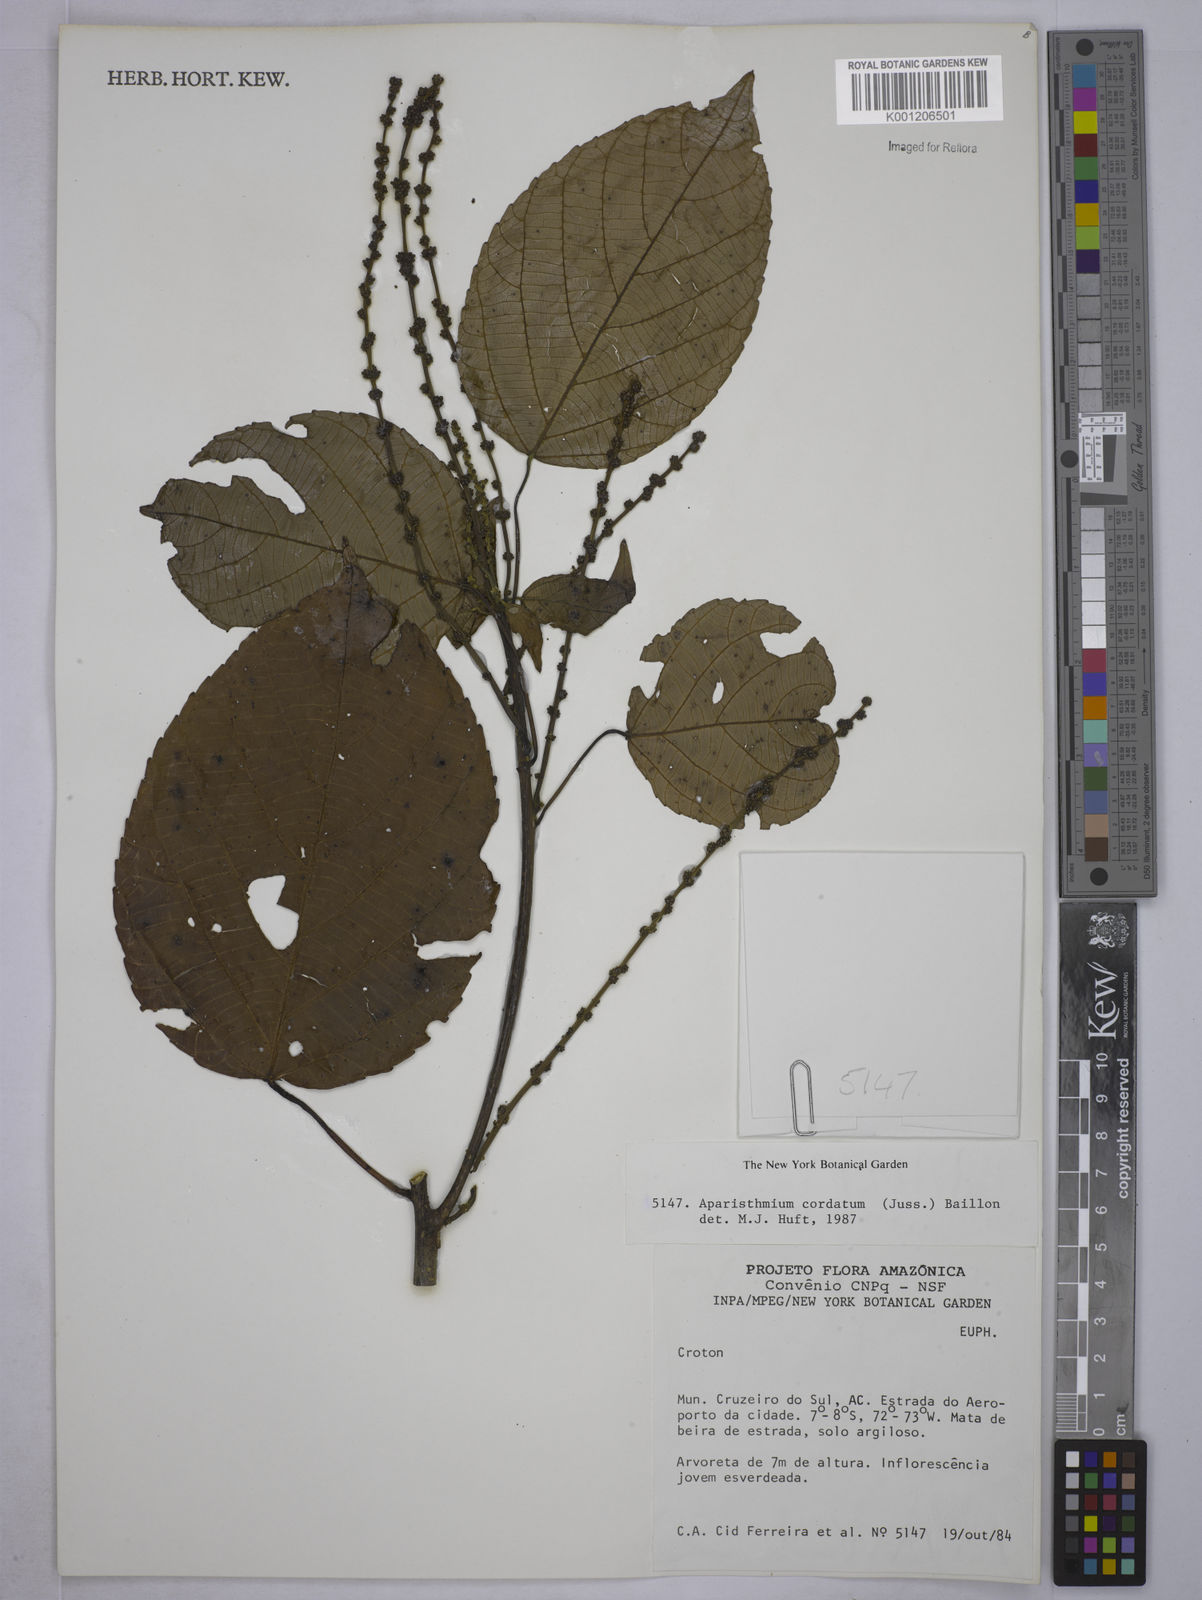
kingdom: Plantae
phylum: Tracheophyta
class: Magnoliopsida
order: Malpighiales
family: Euphorbiaceae
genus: Aparisthmium
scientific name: Aparisthmium cordatum
